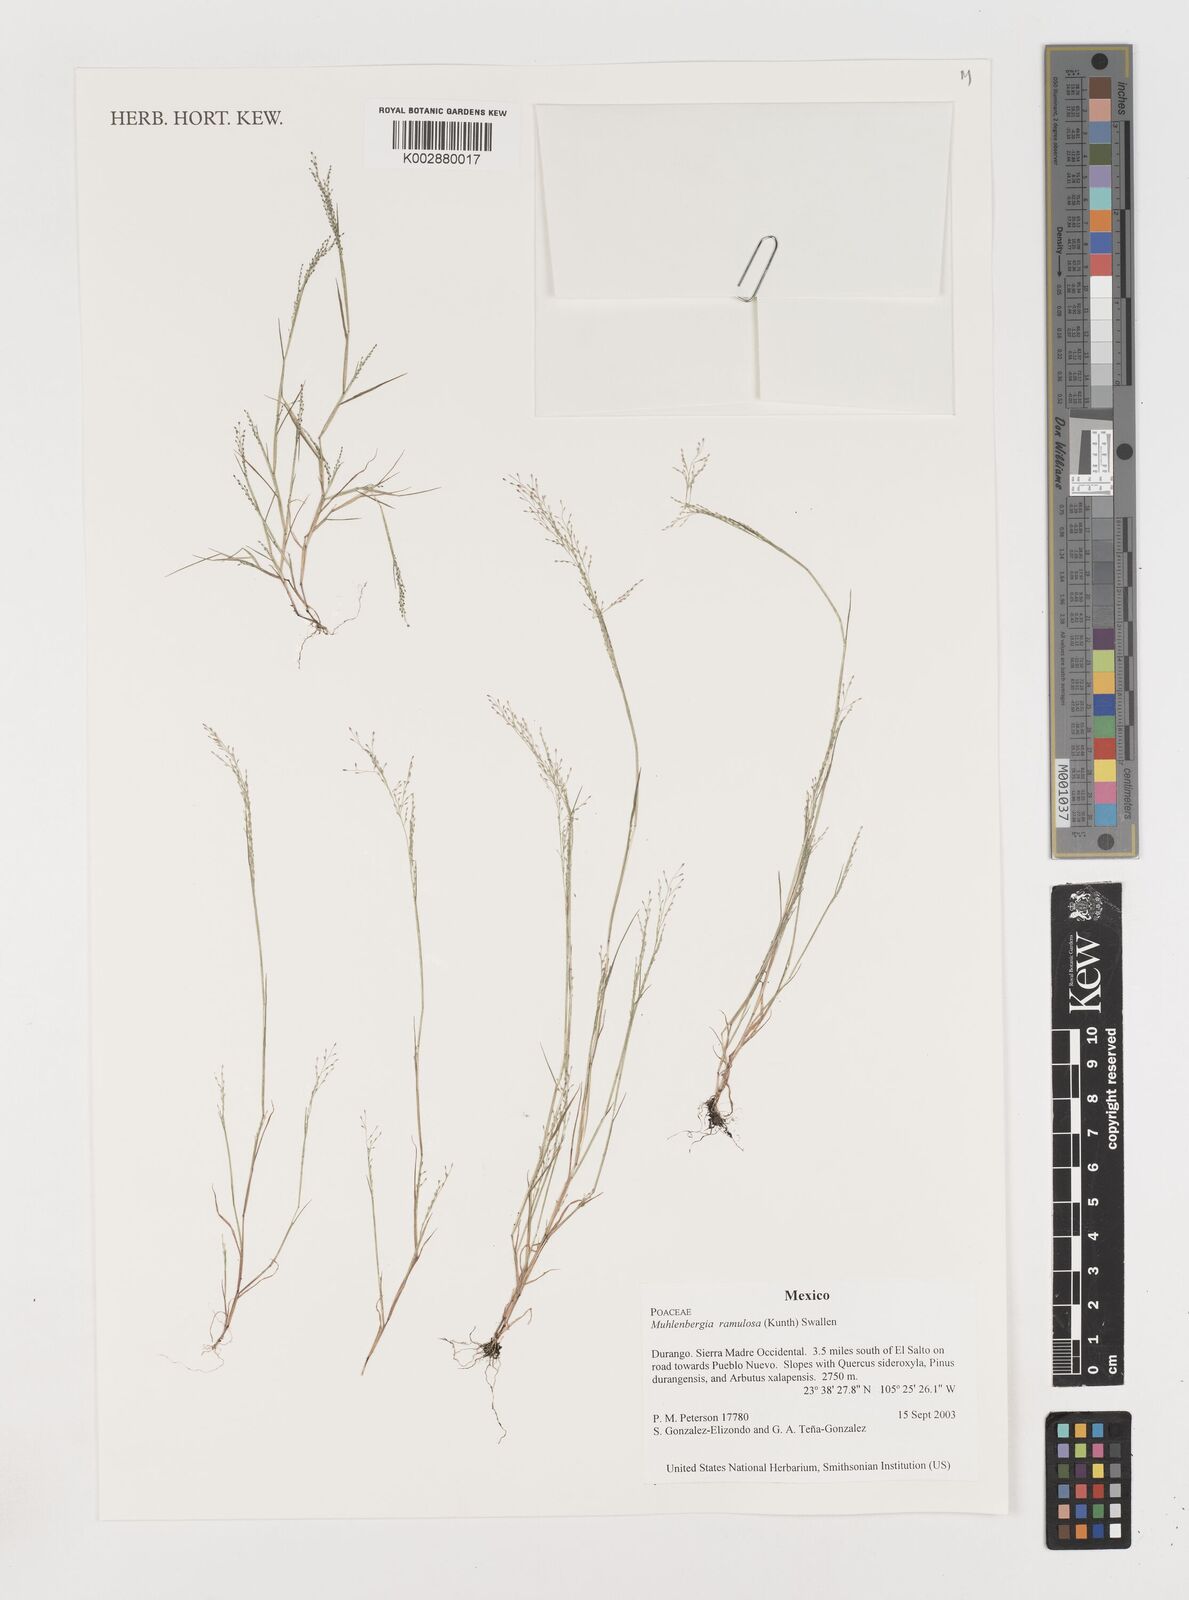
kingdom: Plantae
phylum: Tracheophyta
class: Liliopsida
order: Poales
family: Poaceae
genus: Muhlenbergia
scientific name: Muhlenbergia ramulosa
